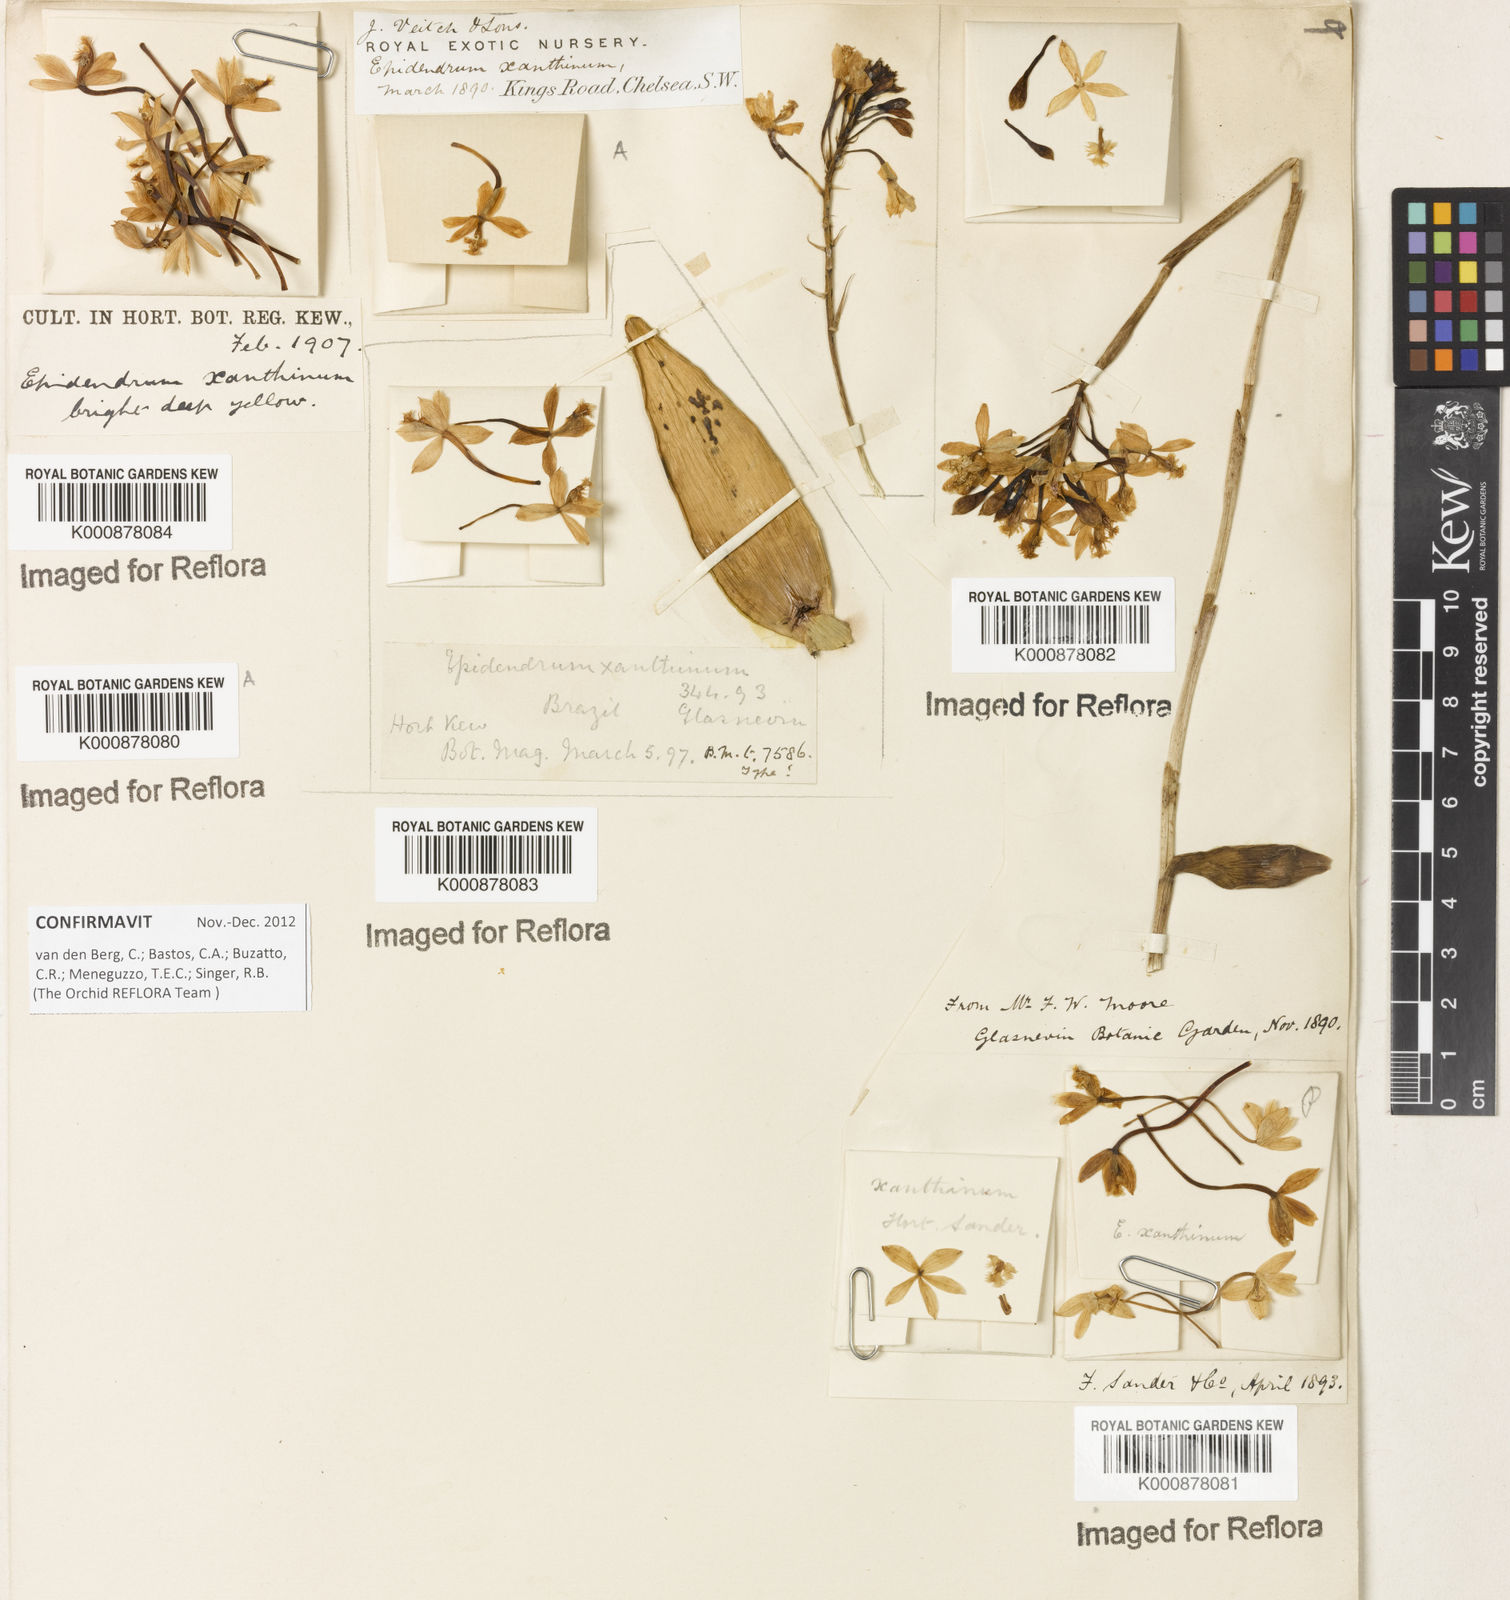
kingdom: Plantae
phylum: Tracheophyta
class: Liliopsida
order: Asparagales
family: Orchidaceae
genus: Epidendrum
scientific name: Epidendrum xanthinum
